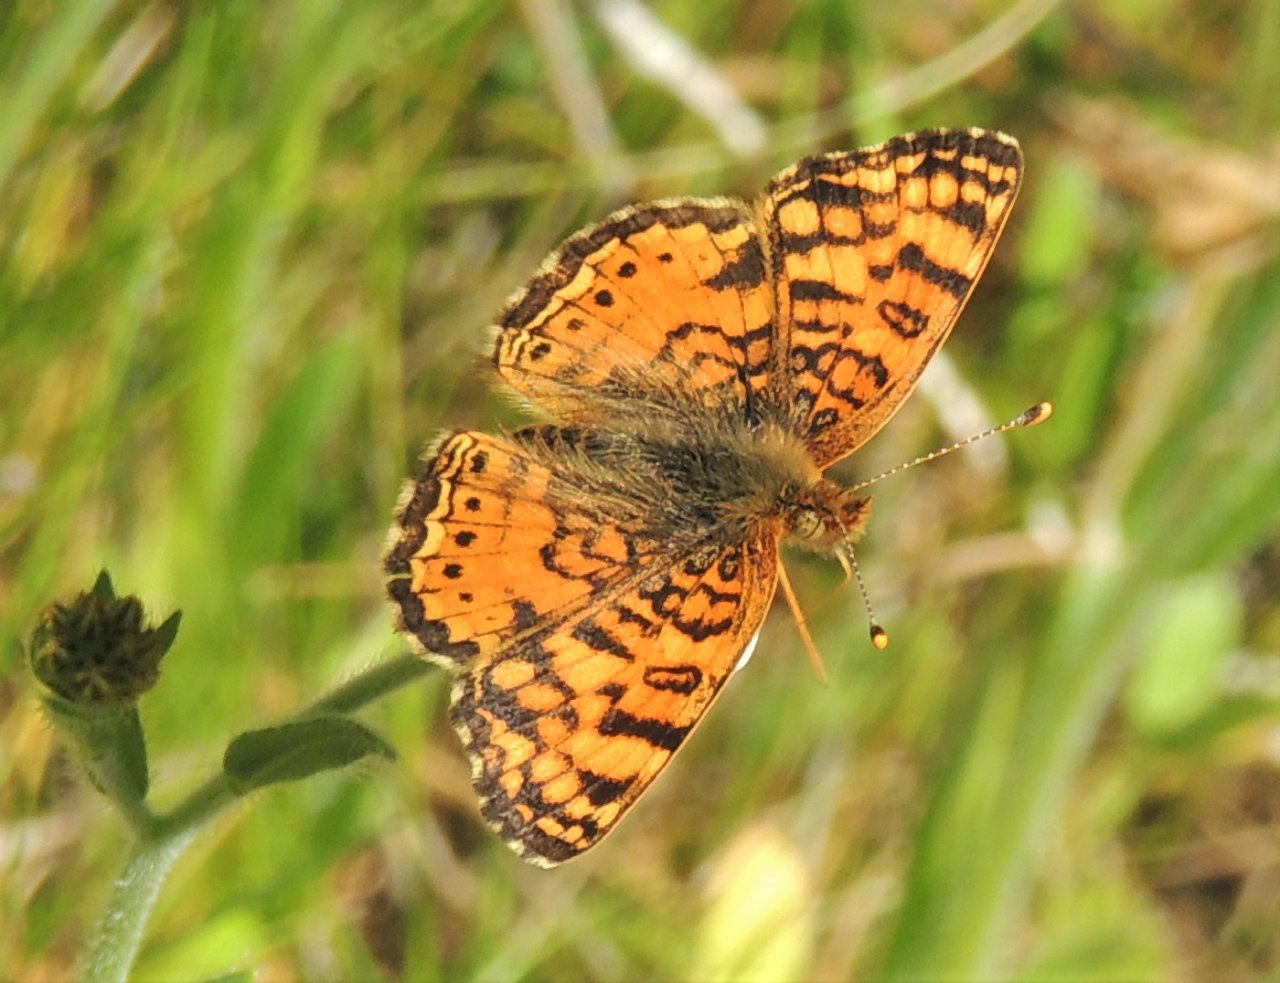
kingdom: Animalia
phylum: Arthropoda
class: Insecta
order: Lepidoptera
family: Nymphalidae
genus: Eresia
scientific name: Eresia aveyrona
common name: Mylitta Crescent
